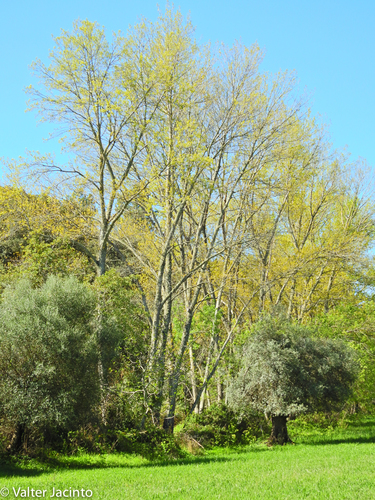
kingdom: Plantae
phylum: Tracheophyta
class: Magnoliopsida
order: Malpighiales
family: Salicaceae
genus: Populus
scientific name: Populus nigra
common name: Black poplar
